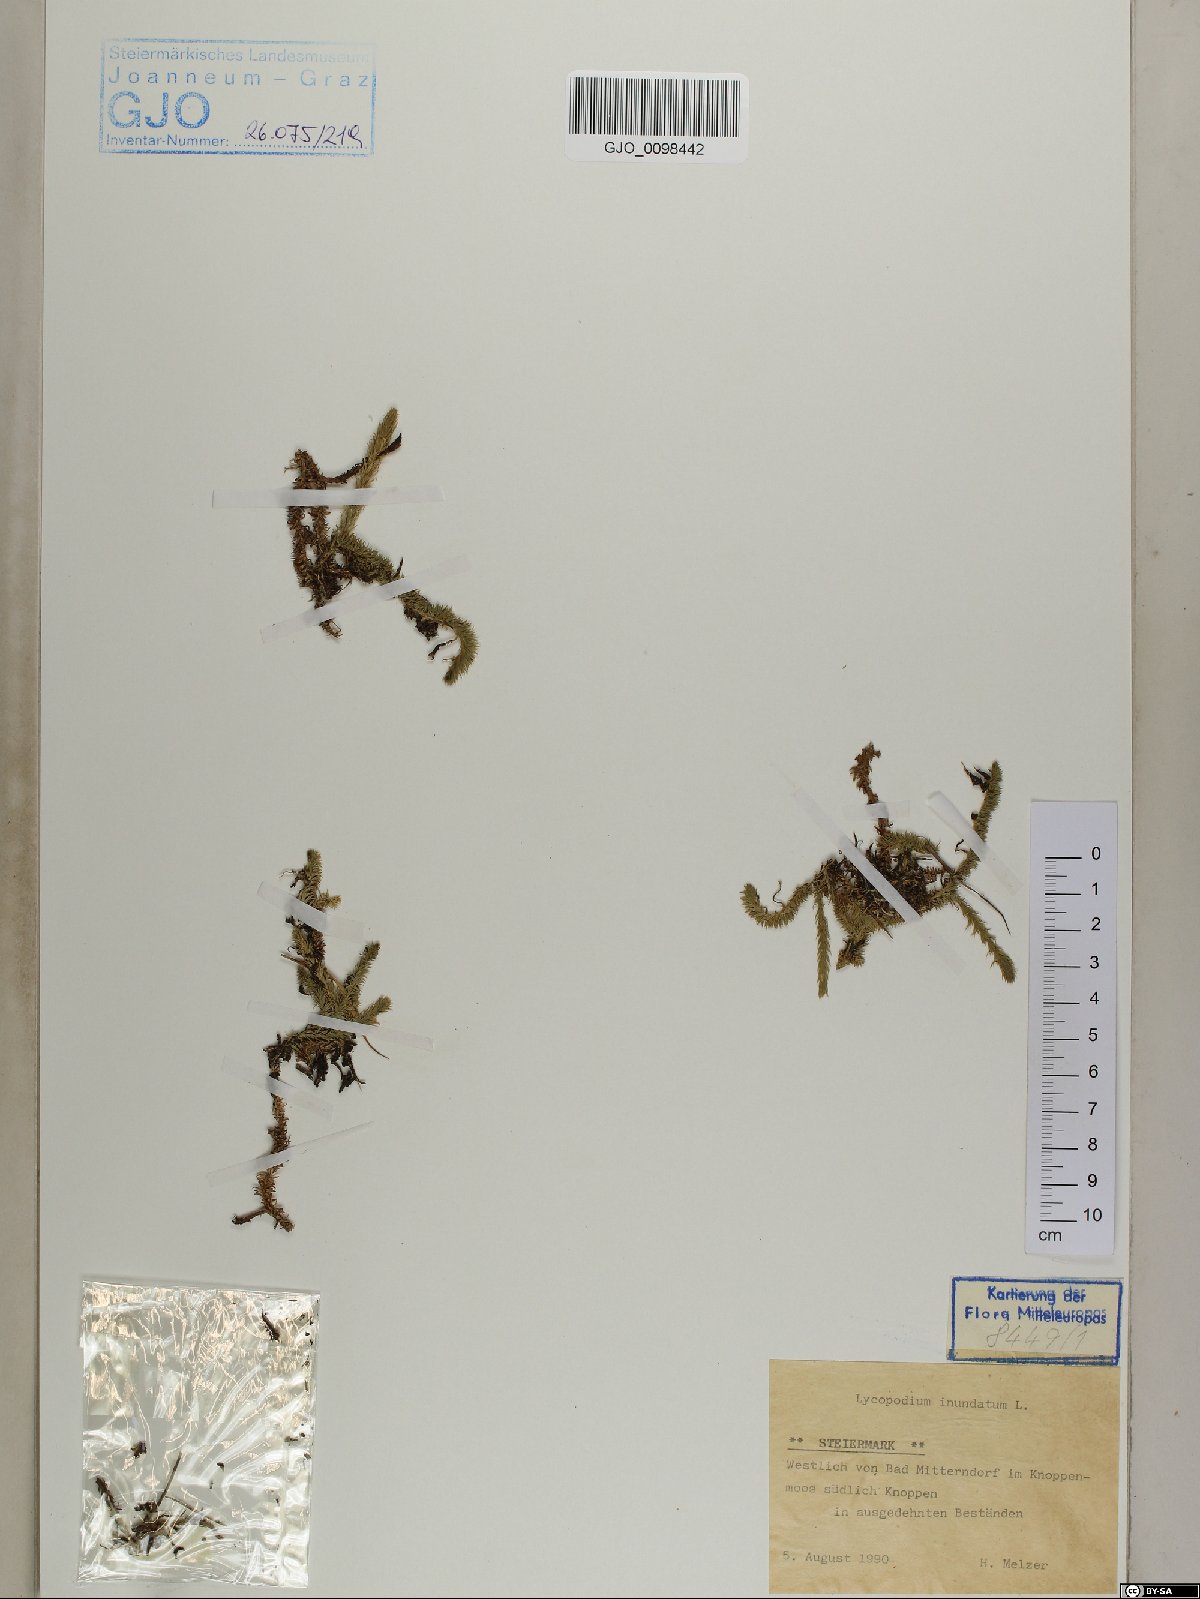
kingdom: Plantae
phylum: Tracheophyta
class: Lycopodiopsida
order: Lycopodiales
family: Lycopodiaceae
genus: Lycopodiella
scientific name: Lycopodiella inundata
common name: Marsh clubmoss
